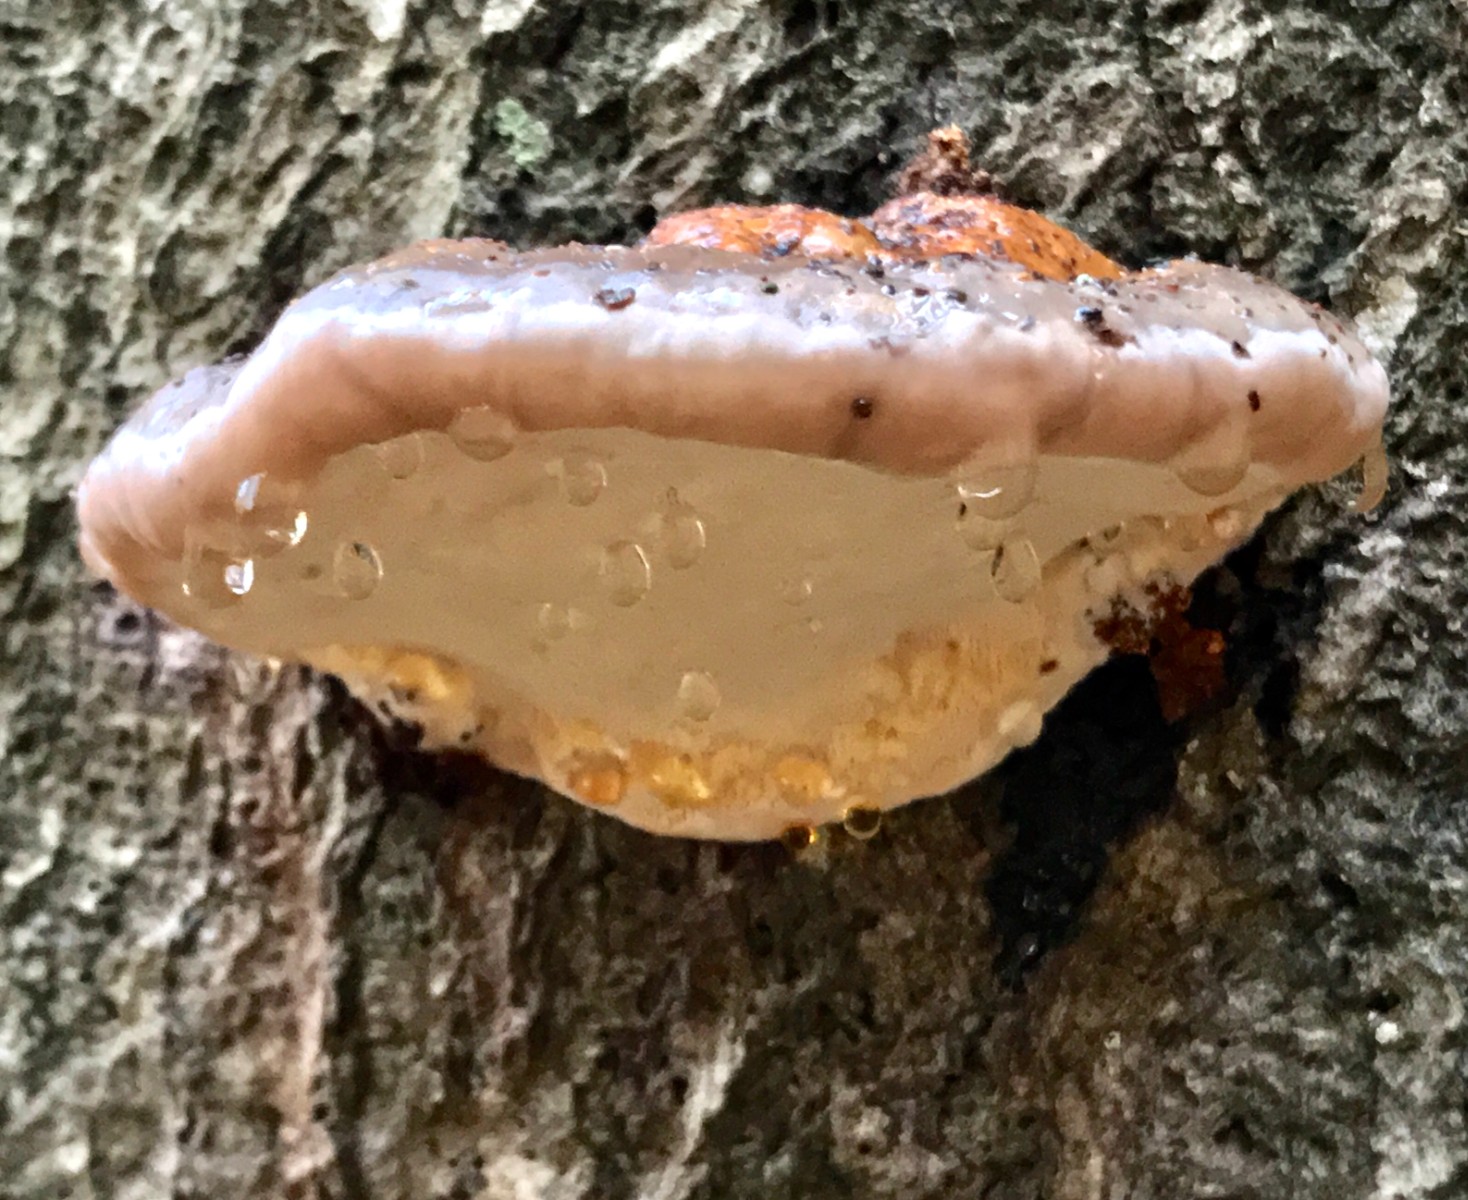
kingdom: Fungi
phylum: Basidiomycota
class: Agaricomycetes
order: Polyporales
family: Fomitopsidaceae
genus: Fomitopsis
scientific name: Fomitopsis pinicola
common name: randbæltet hovporesvamp
